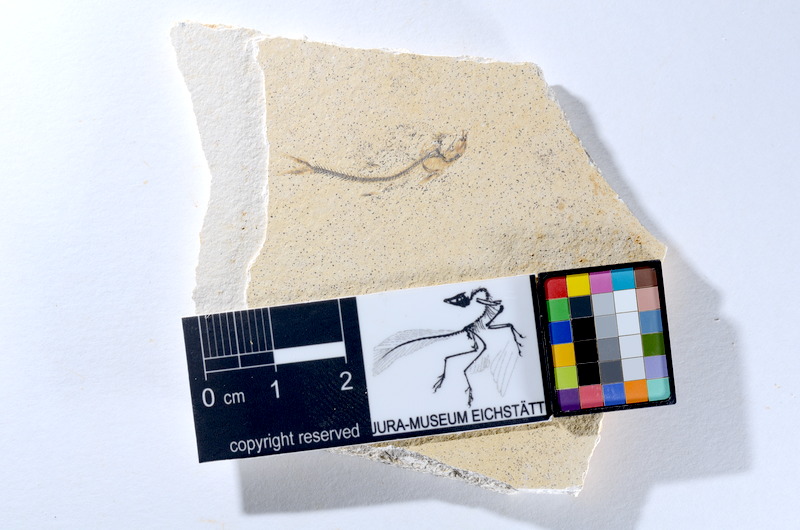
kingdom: Animalia
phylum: Chordata
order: Salmoniformes
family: Orthogonikleithridae
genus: Orthogonikleithrus
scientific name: Orthogonikleithrus hoelli
